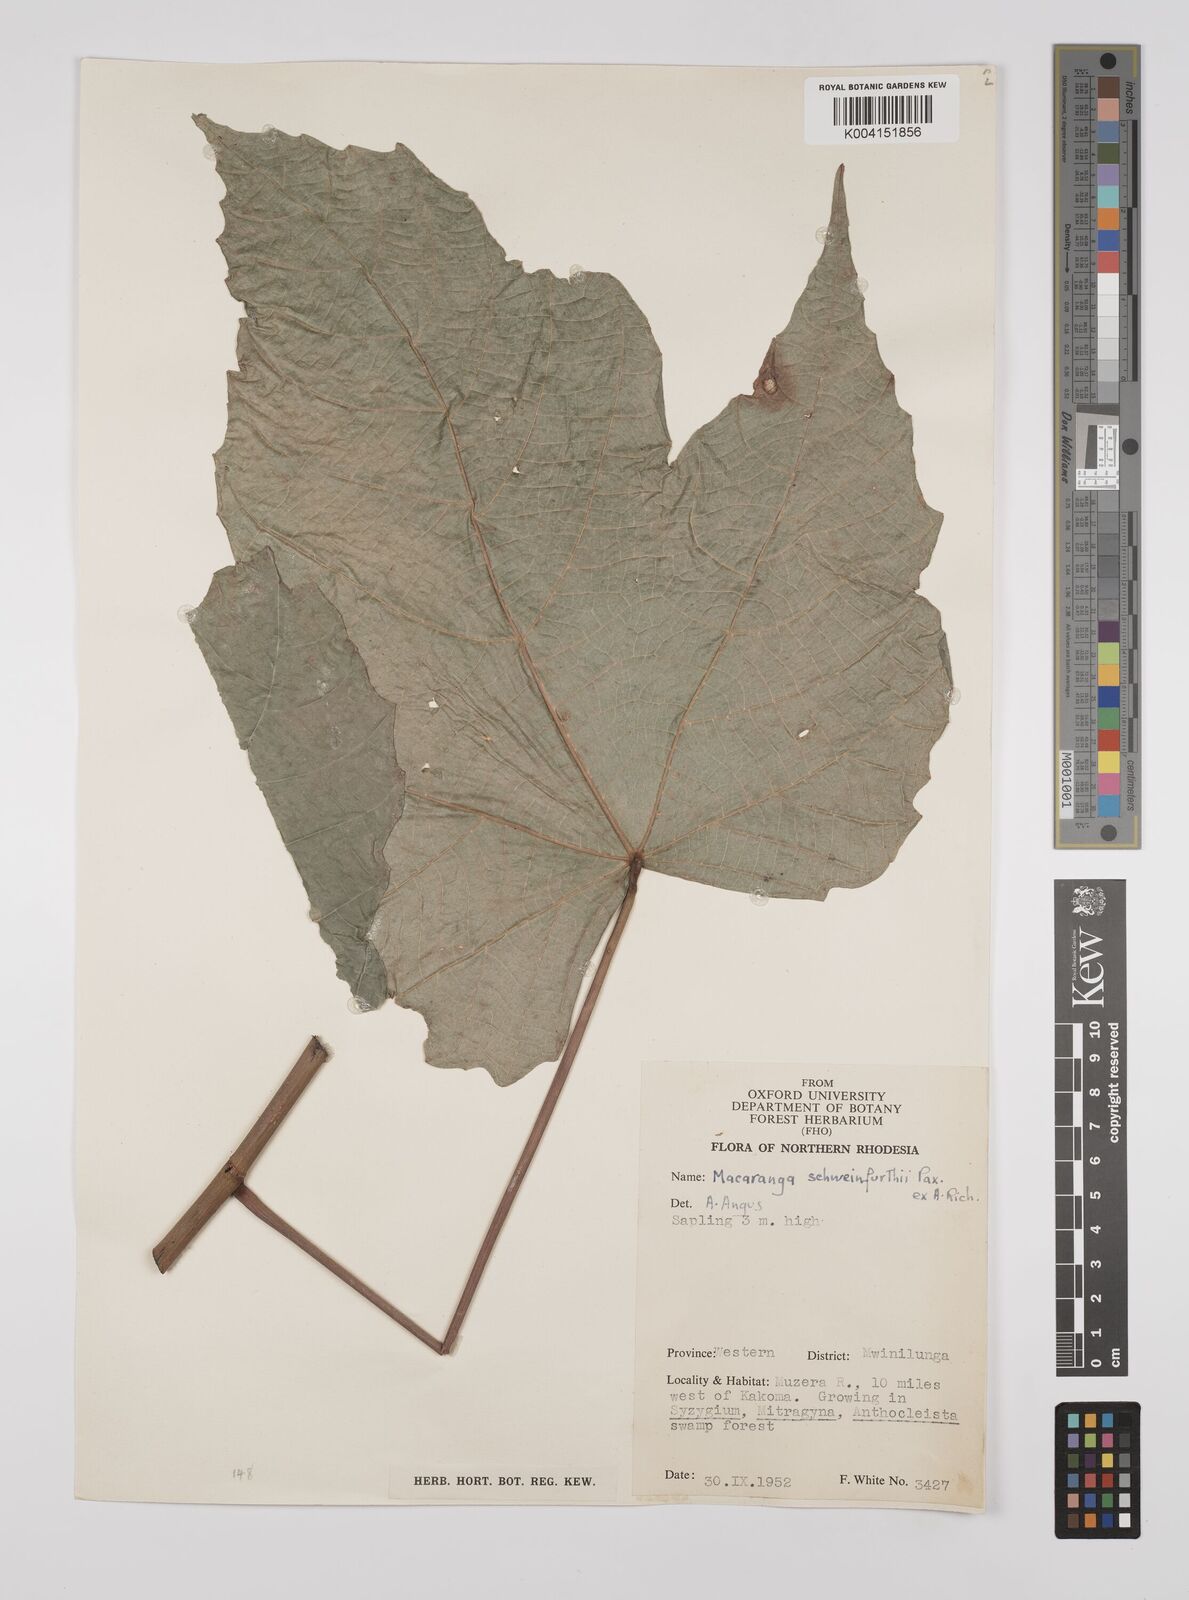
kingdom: Plantae
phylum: Tracheophyta
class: Magnoliopsida
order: Malpighiales
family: Euphorbiaceae
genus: Macaranga
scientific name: Macaranga schweinfurthii
